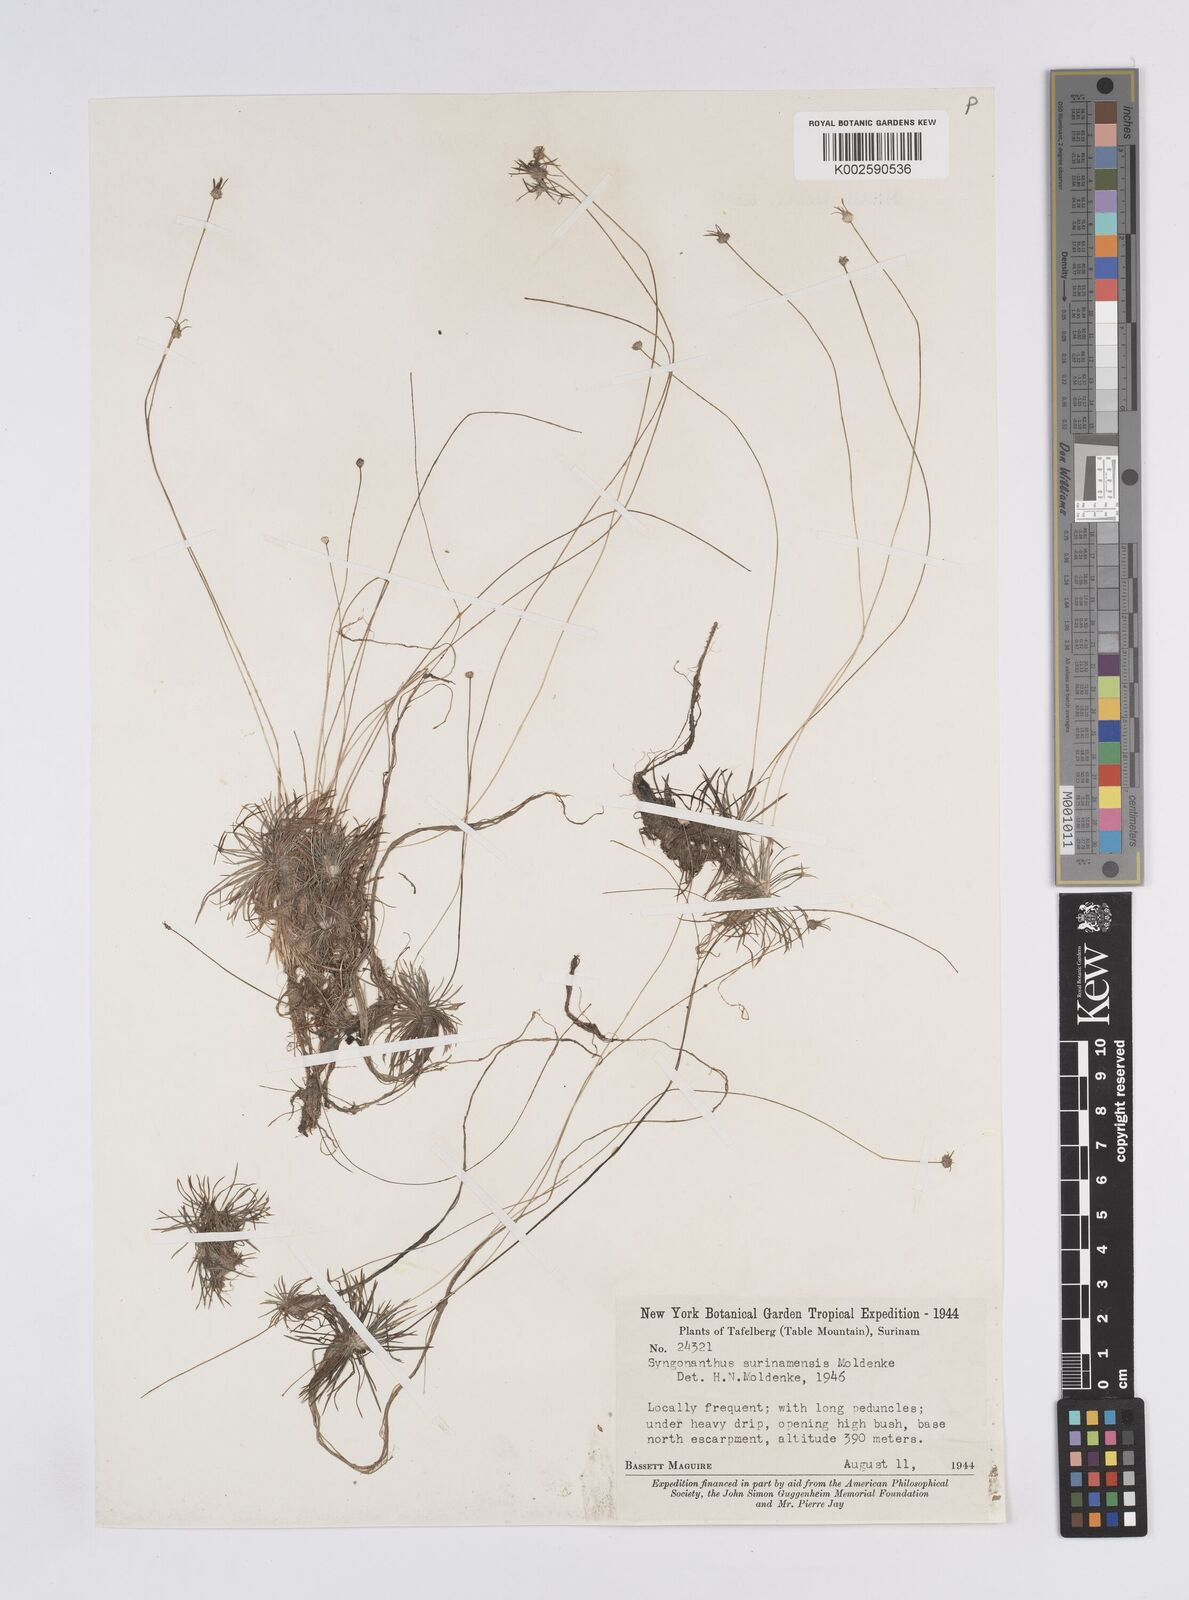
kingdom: Plantae
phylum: Tracheophyta
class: Liliopsida
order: Poales
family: Eriocaulaceae
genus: Syngonanthus
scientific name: Syngonanthus surinamensis
